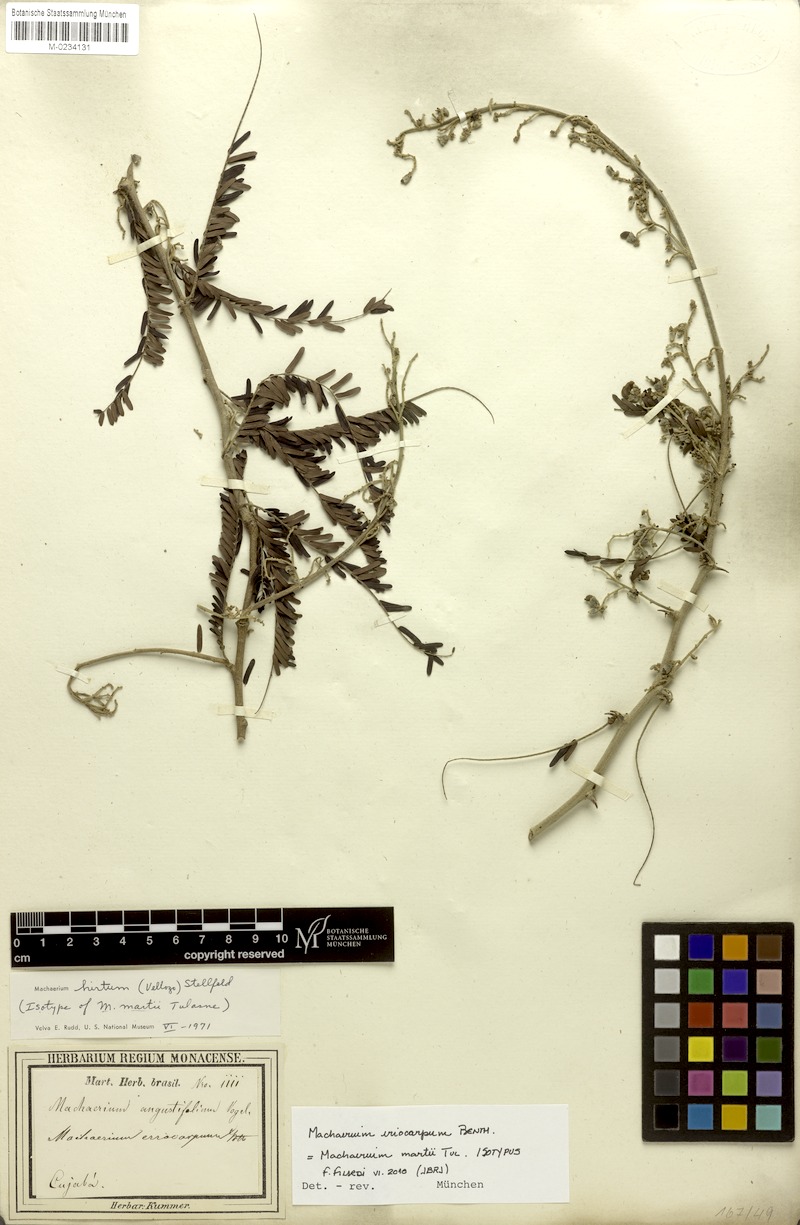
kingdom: Plantae
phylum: Tracheophyta
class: Magnoliopsida
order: Fabales
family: Fabaceae
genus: Machaerium
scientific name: Machaerium eriocarpum
